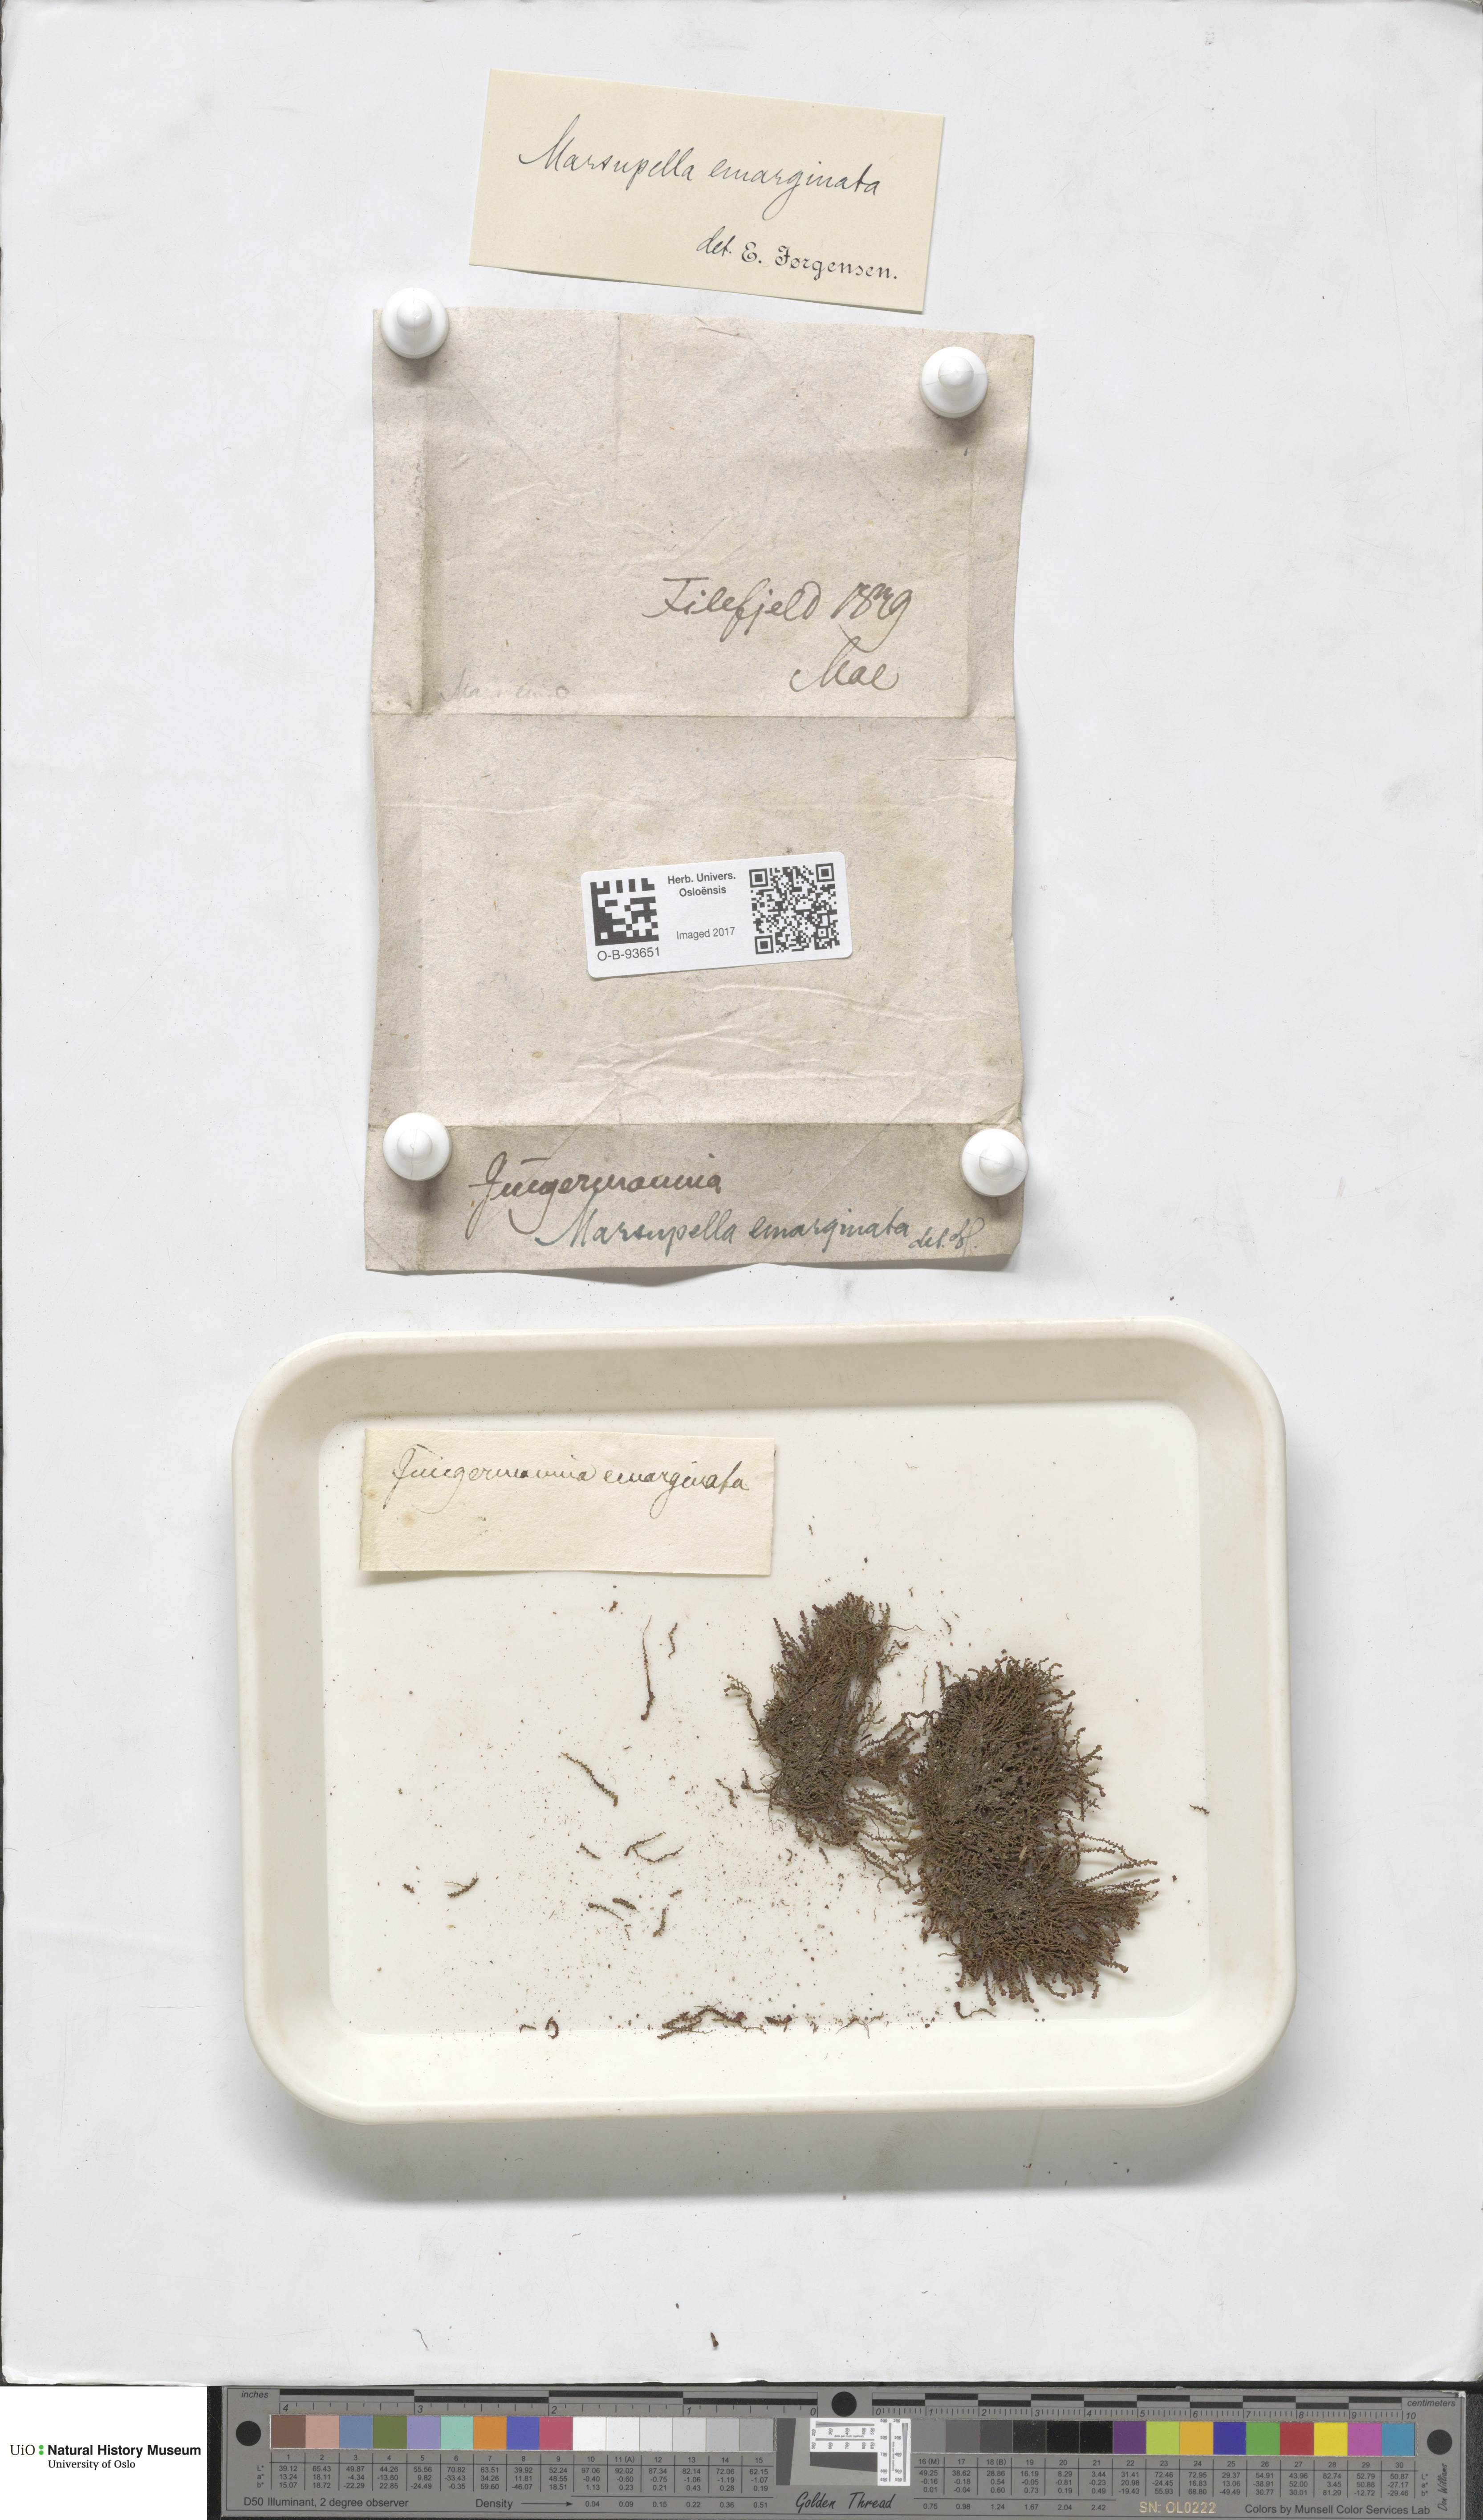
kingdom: Plantae
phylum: Marchantiophyta
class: Jungermanniopsida
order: Jungermanniales
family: Gymnomitriaceae
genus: Marsupella
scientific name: Marsupella emarginata
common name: Notched rustwort
